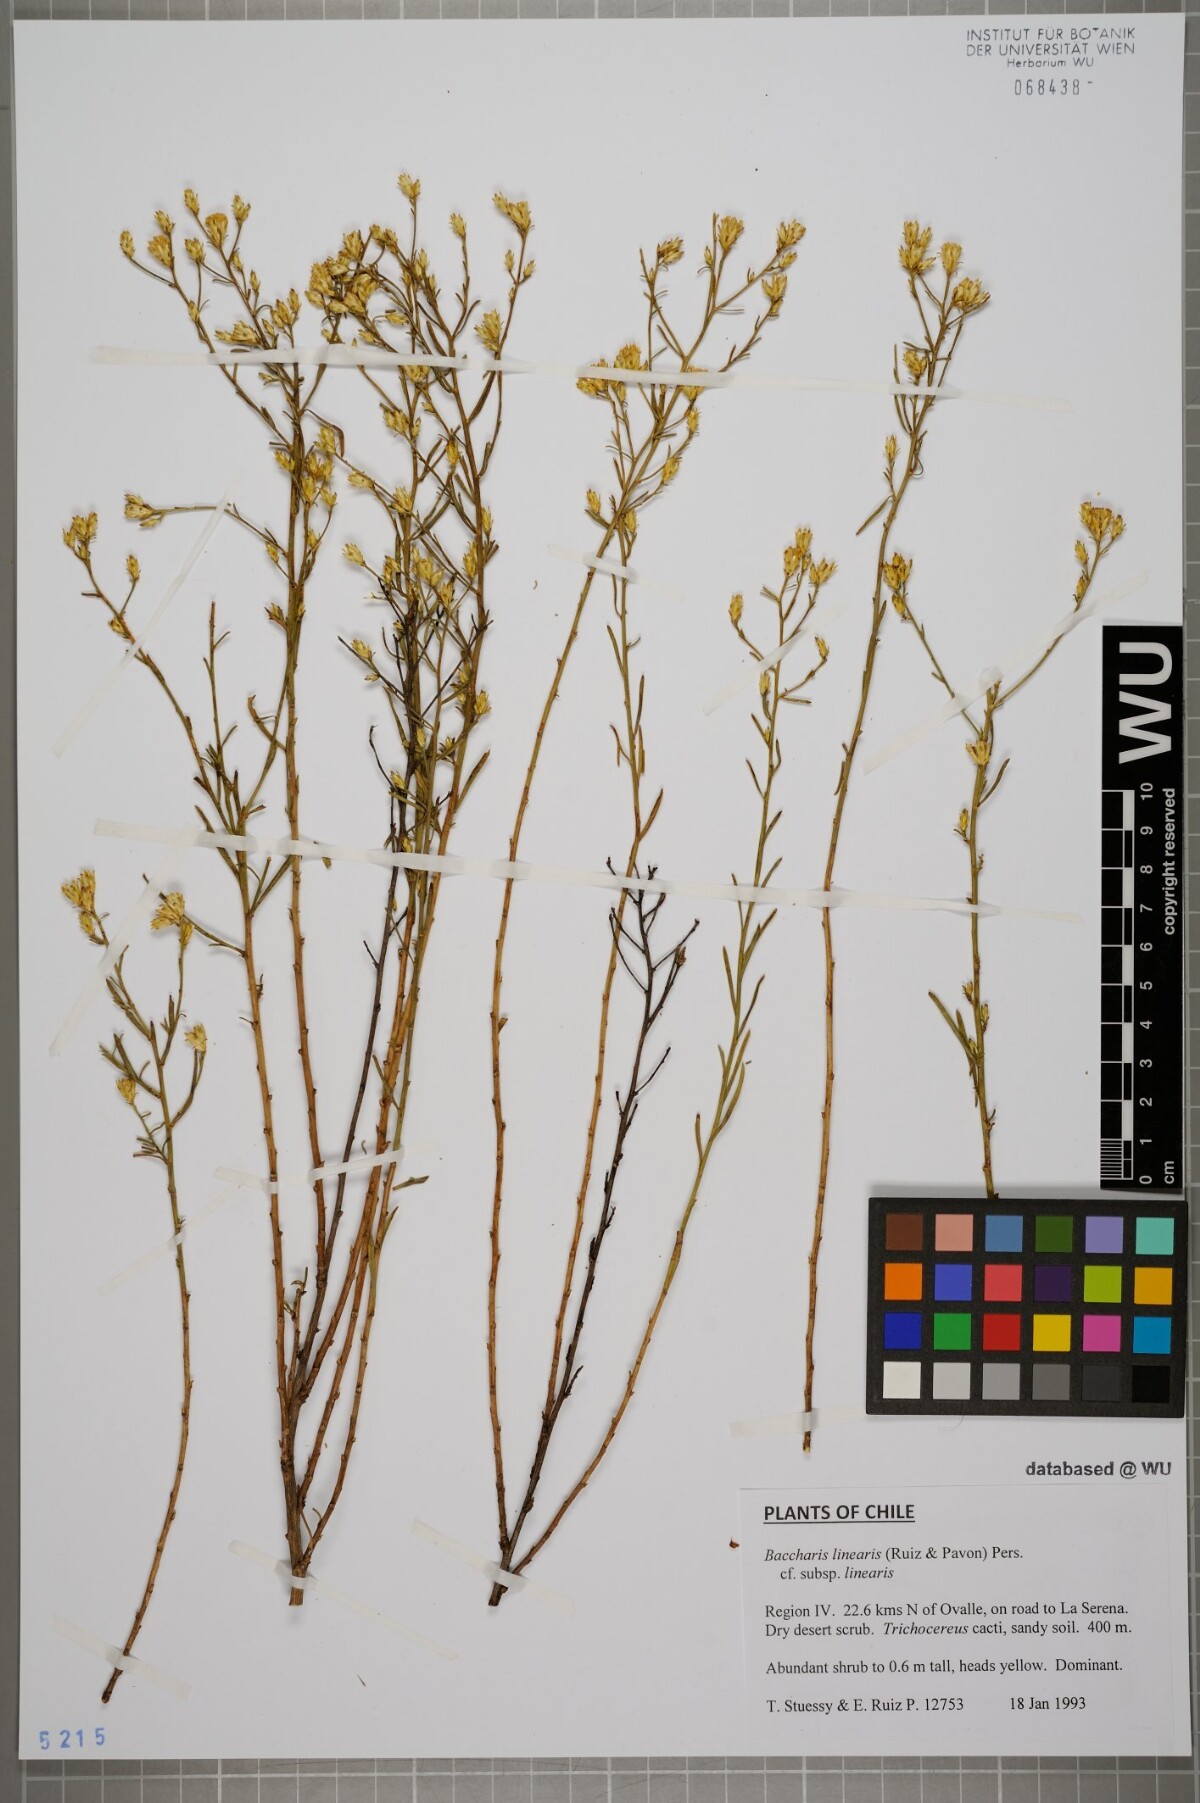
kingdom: Plantae
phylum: Tracheophyta
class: Magnoliopsida
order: Asterales
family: Asteraceae
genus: Baccharis
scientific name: Baccharis linearis
